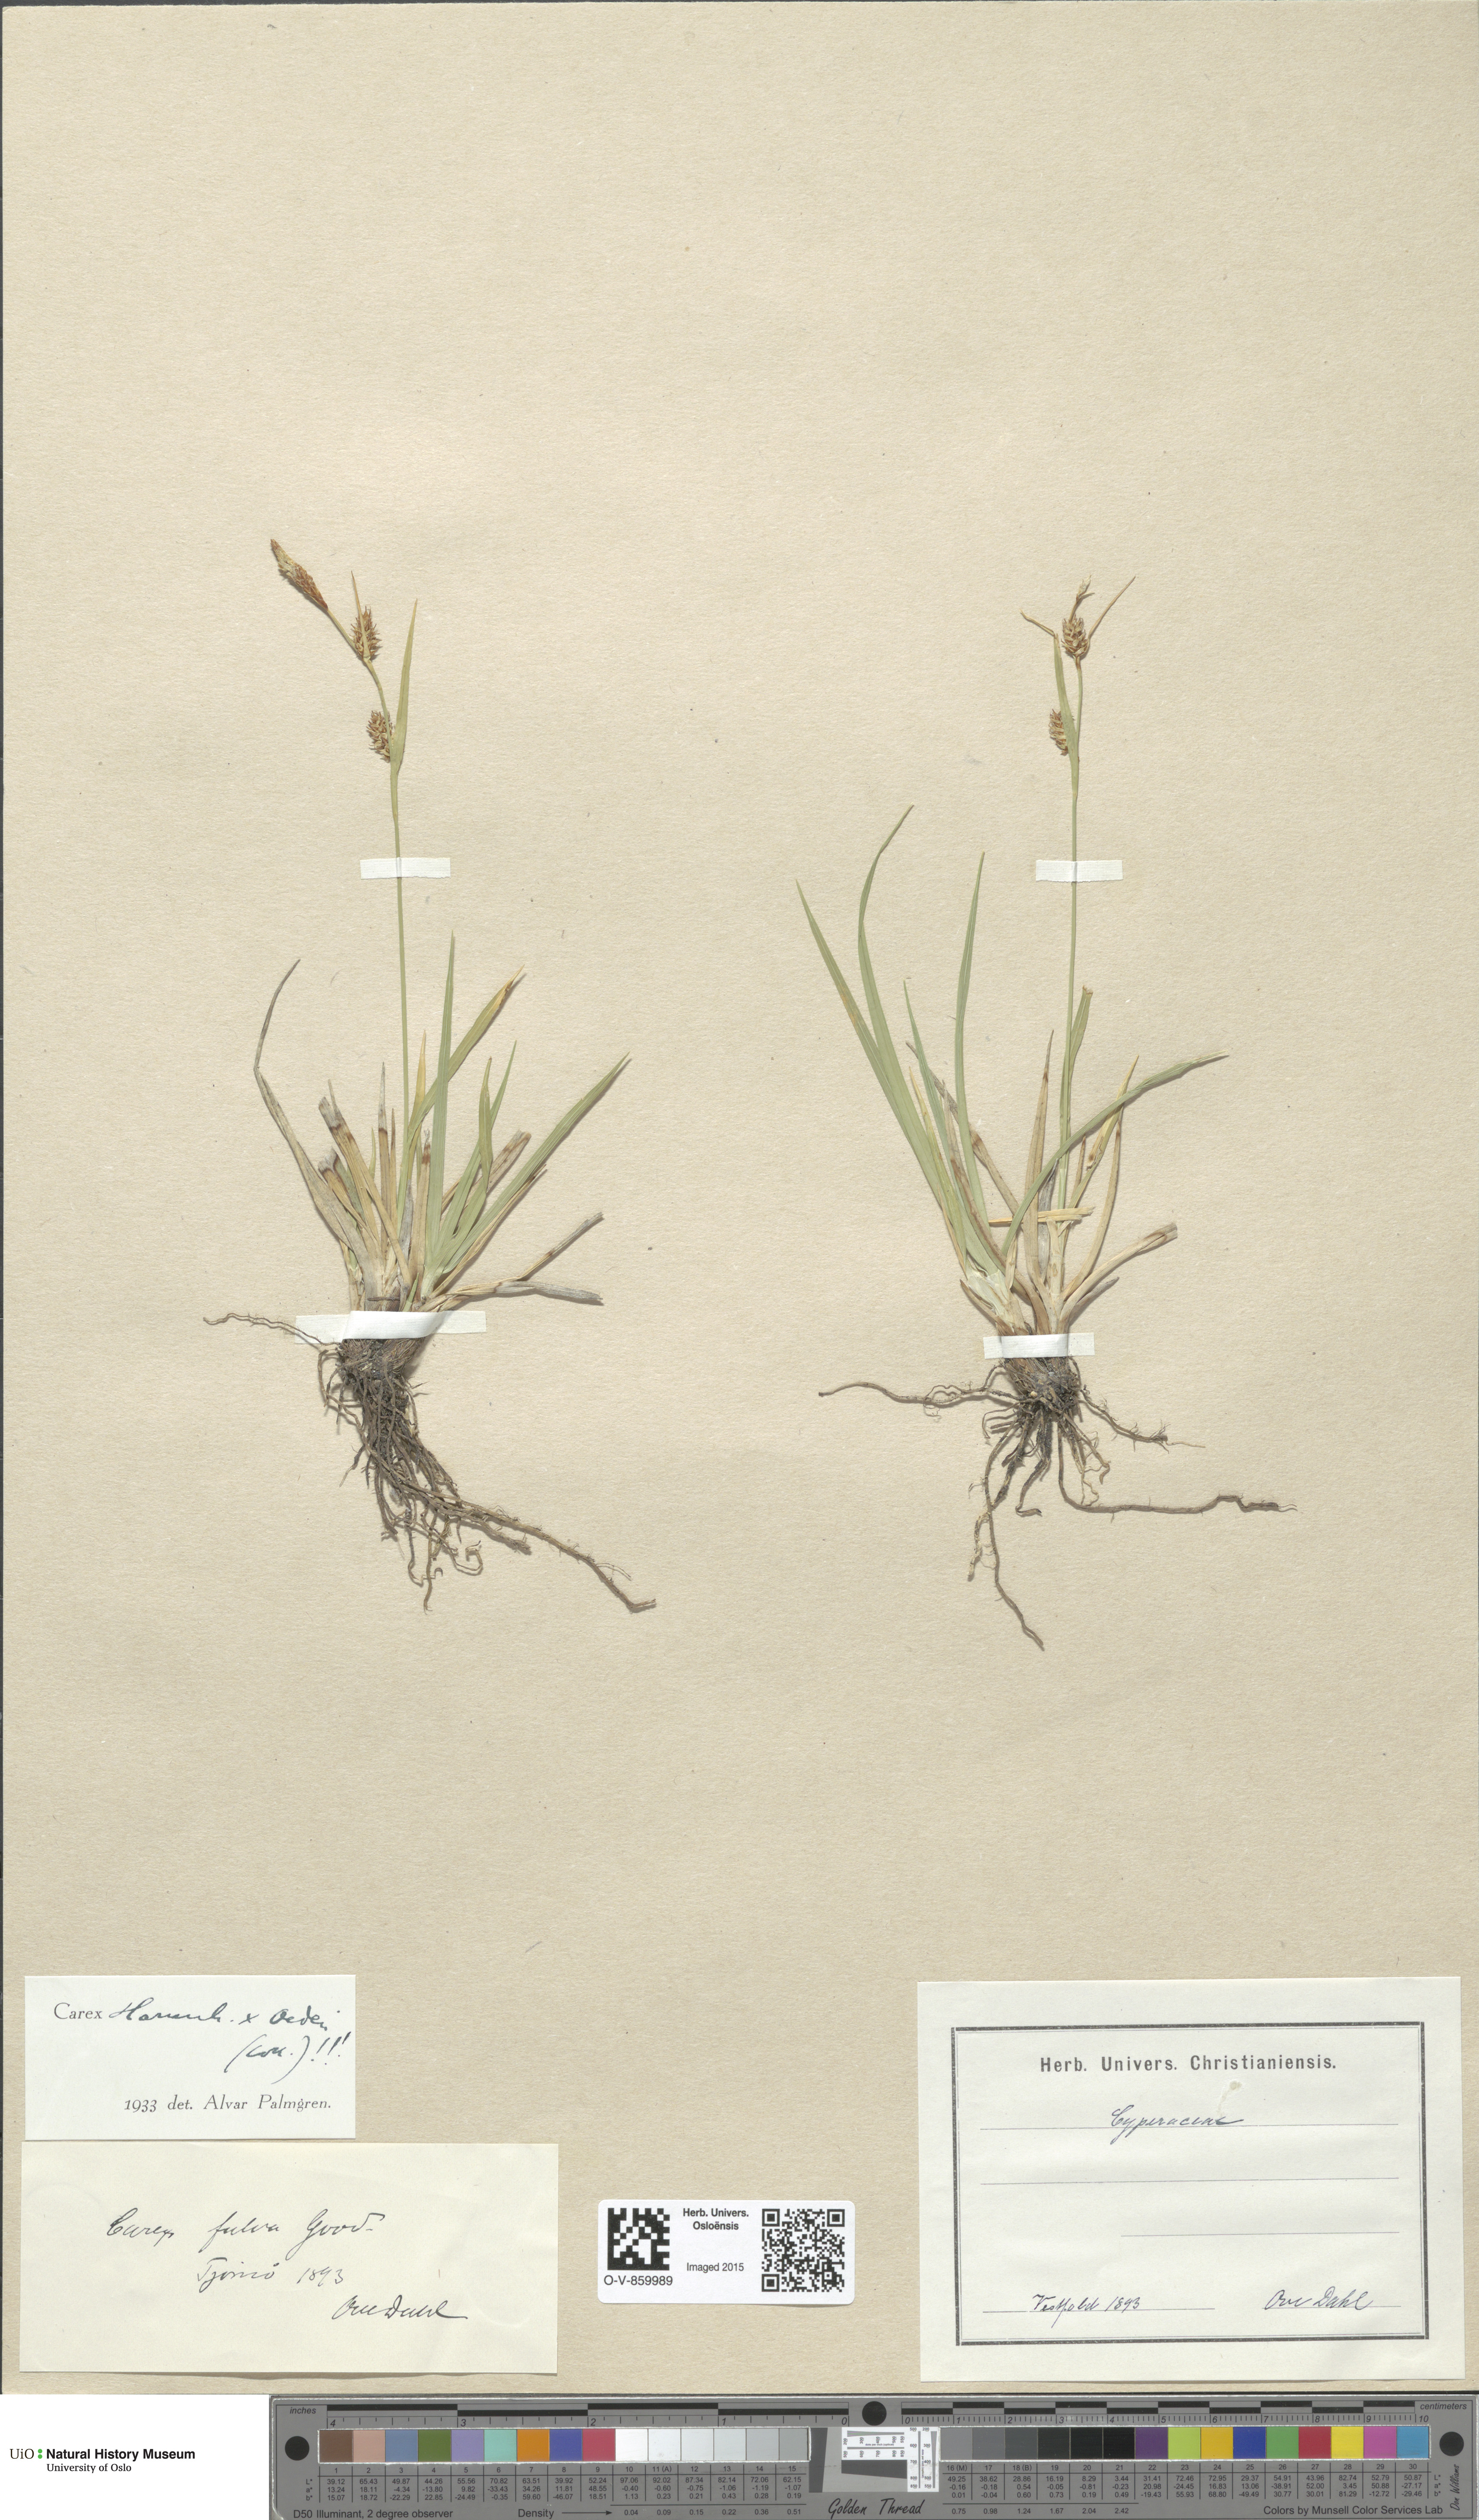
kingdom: Plantae
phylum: Tracheophyta
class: Liliopsida
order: Poales
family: Cyperaceae
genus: Carex
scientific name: Carex
